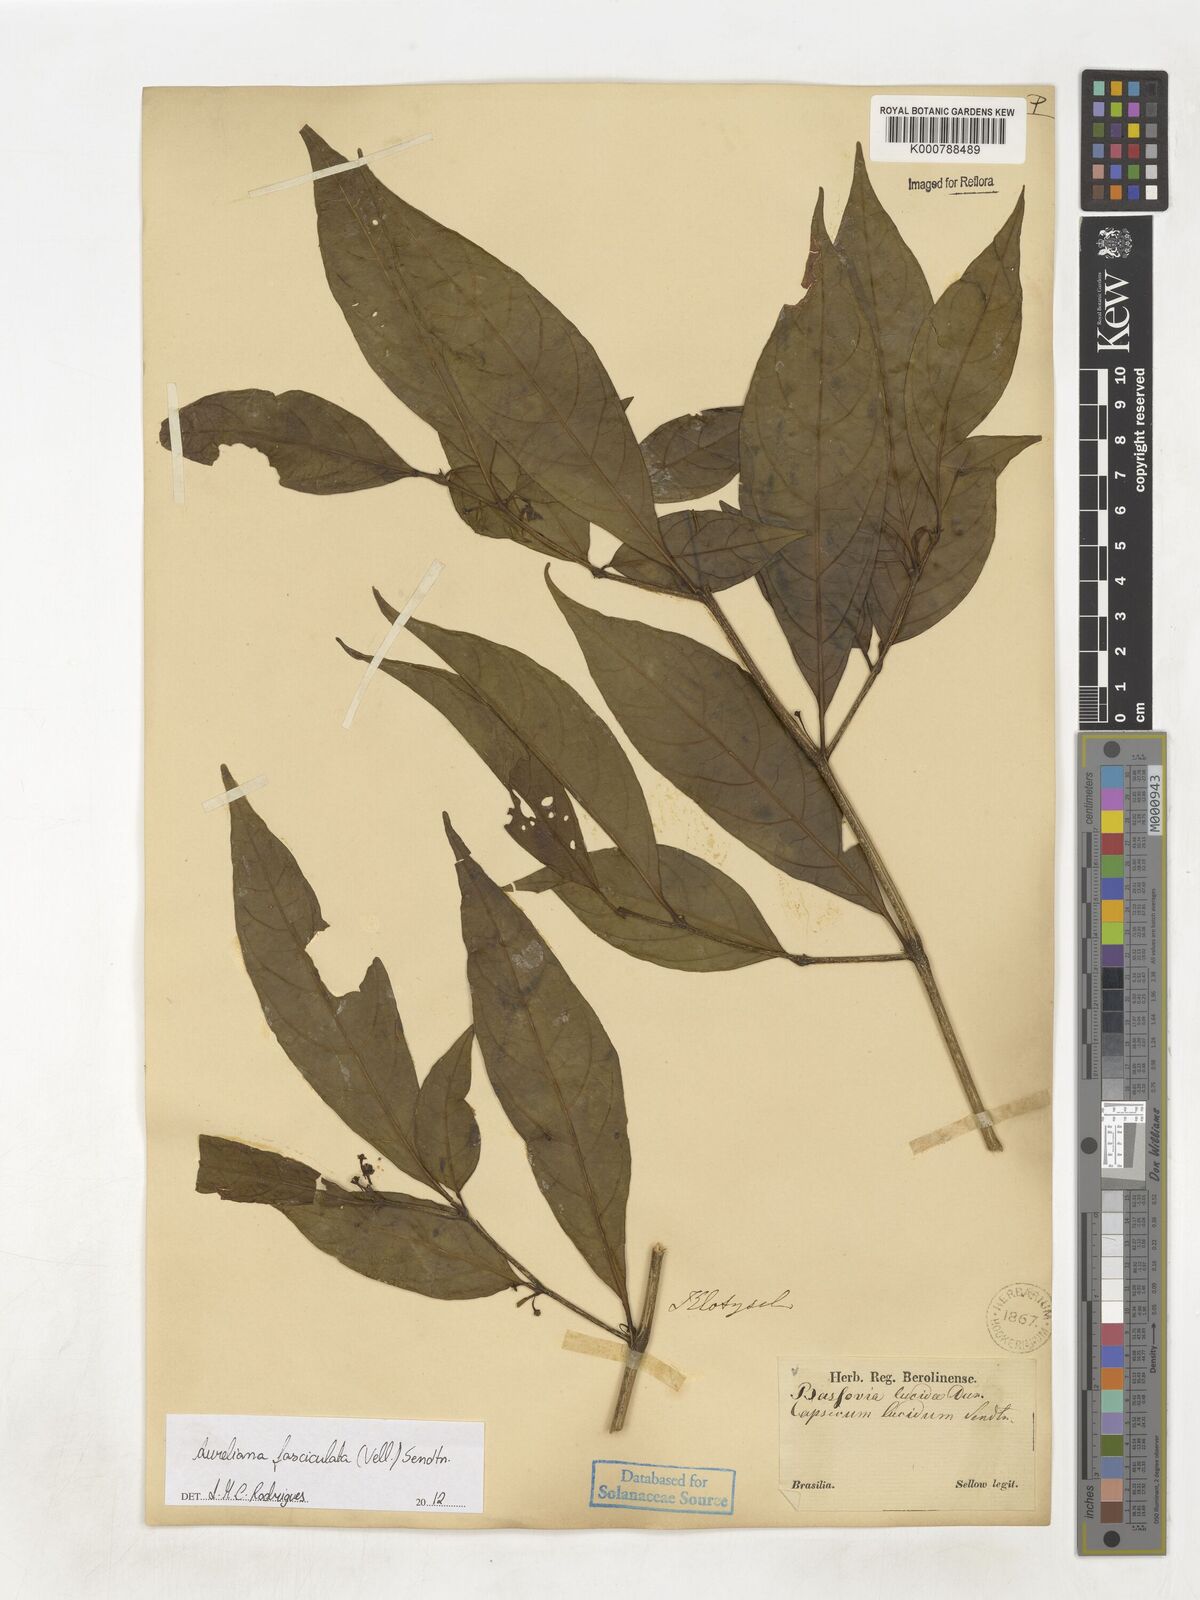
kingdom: Plantae
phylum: Tracheophyta
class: Magnoliopsida
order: Solanales
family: Solanaceae
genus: Athenaea
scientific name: Athenaea fasciculata
